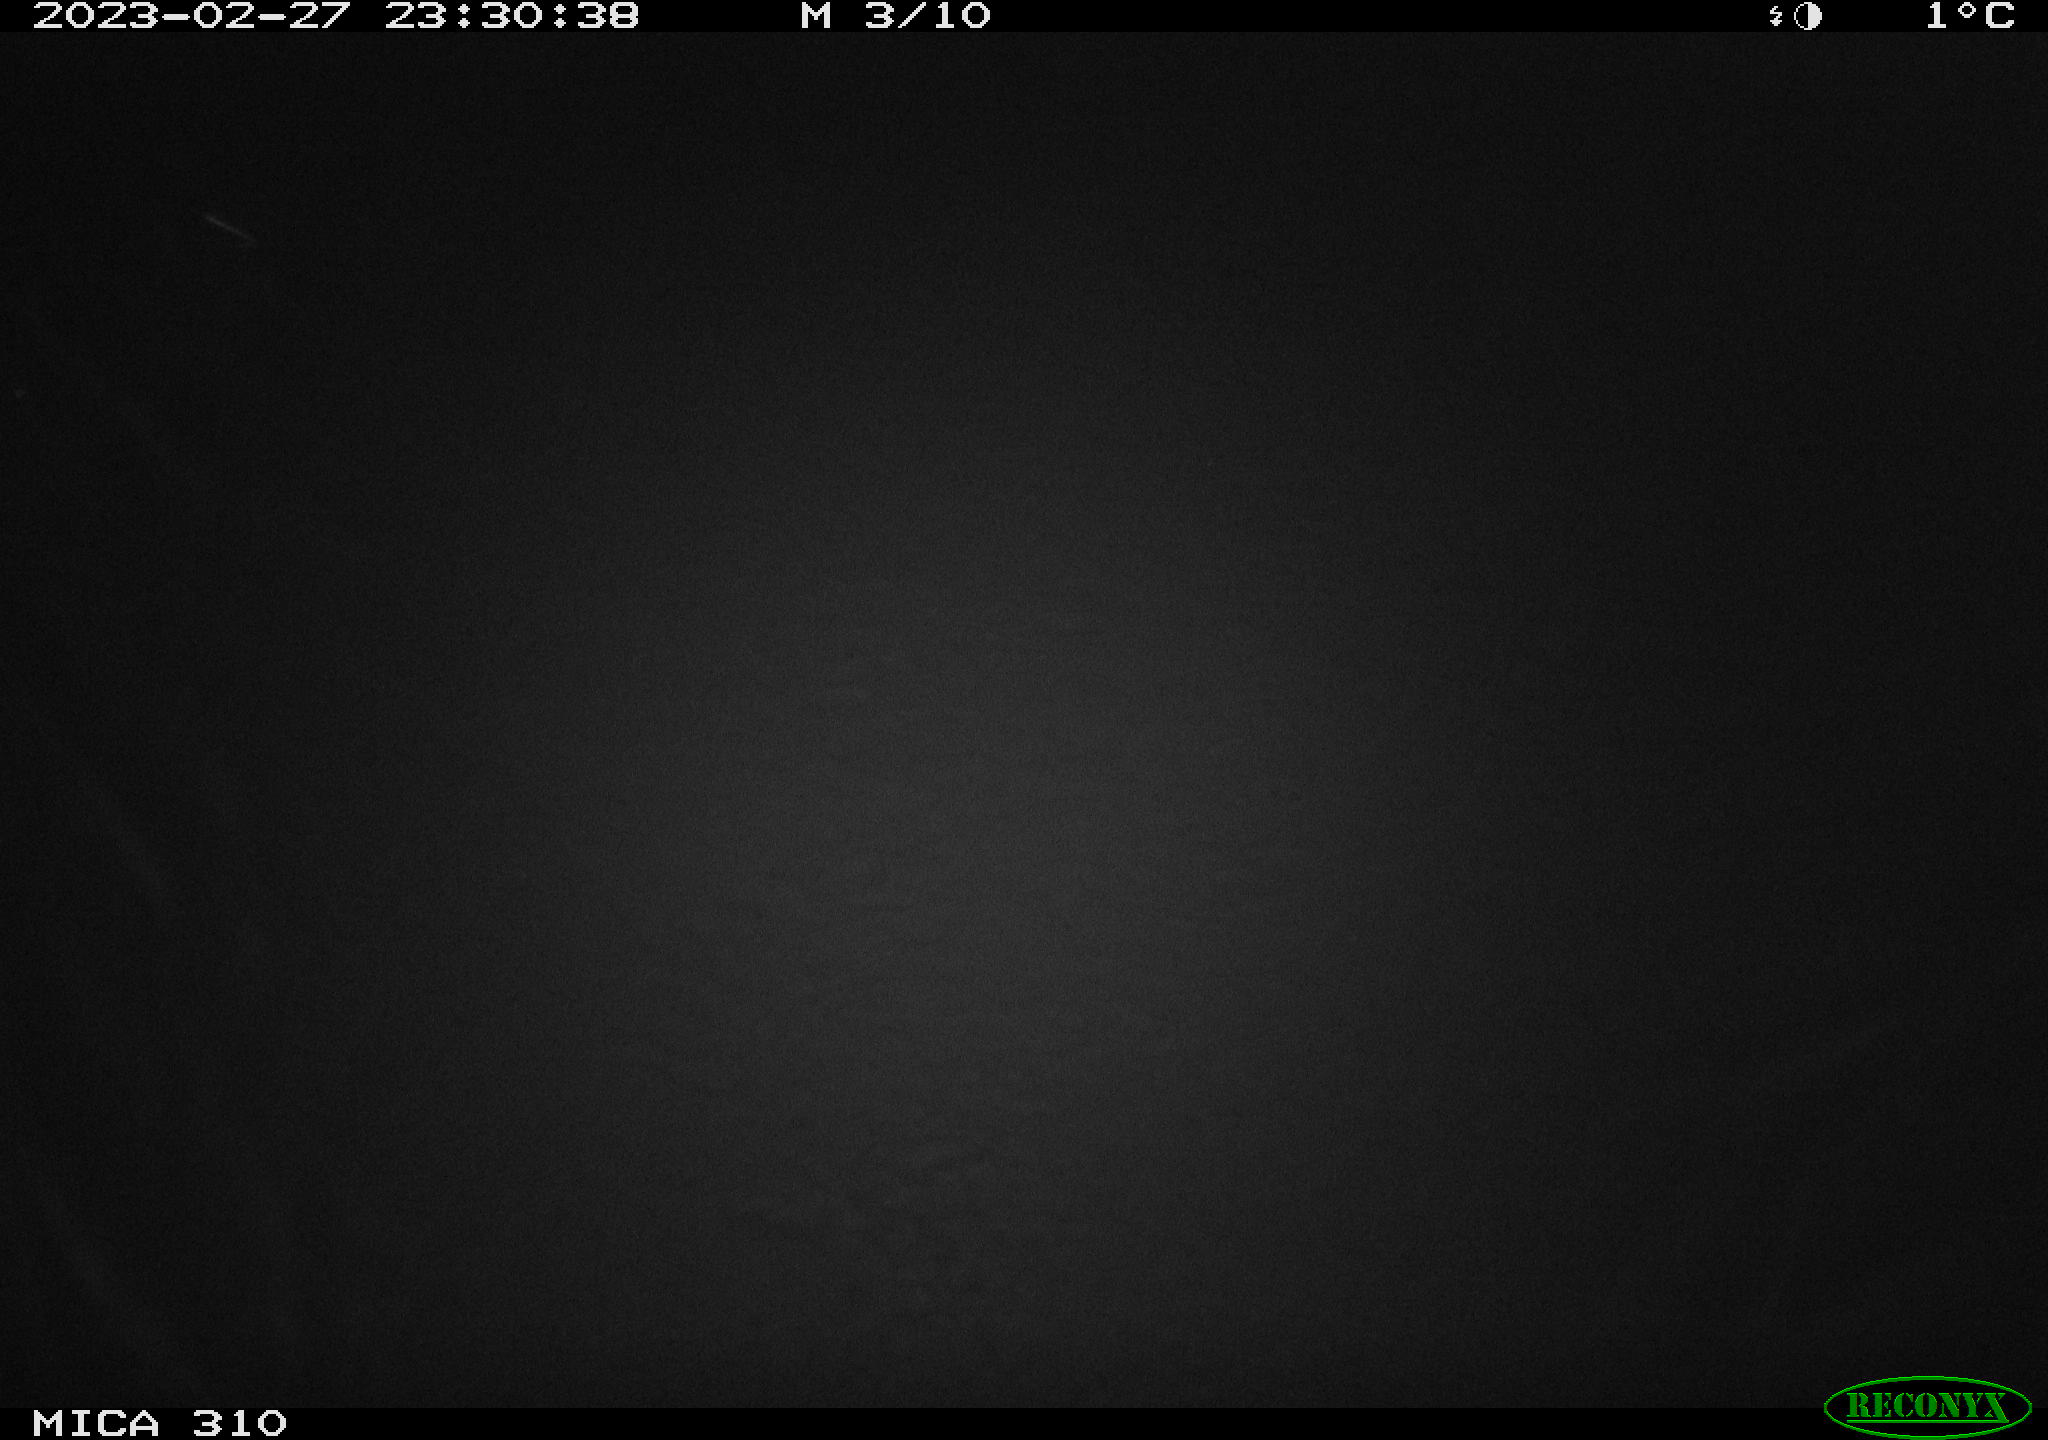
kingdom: Animalia
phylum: Chordata
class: Aves
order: Anseriformes
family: Anatidae
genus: Anas
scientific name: Anas
